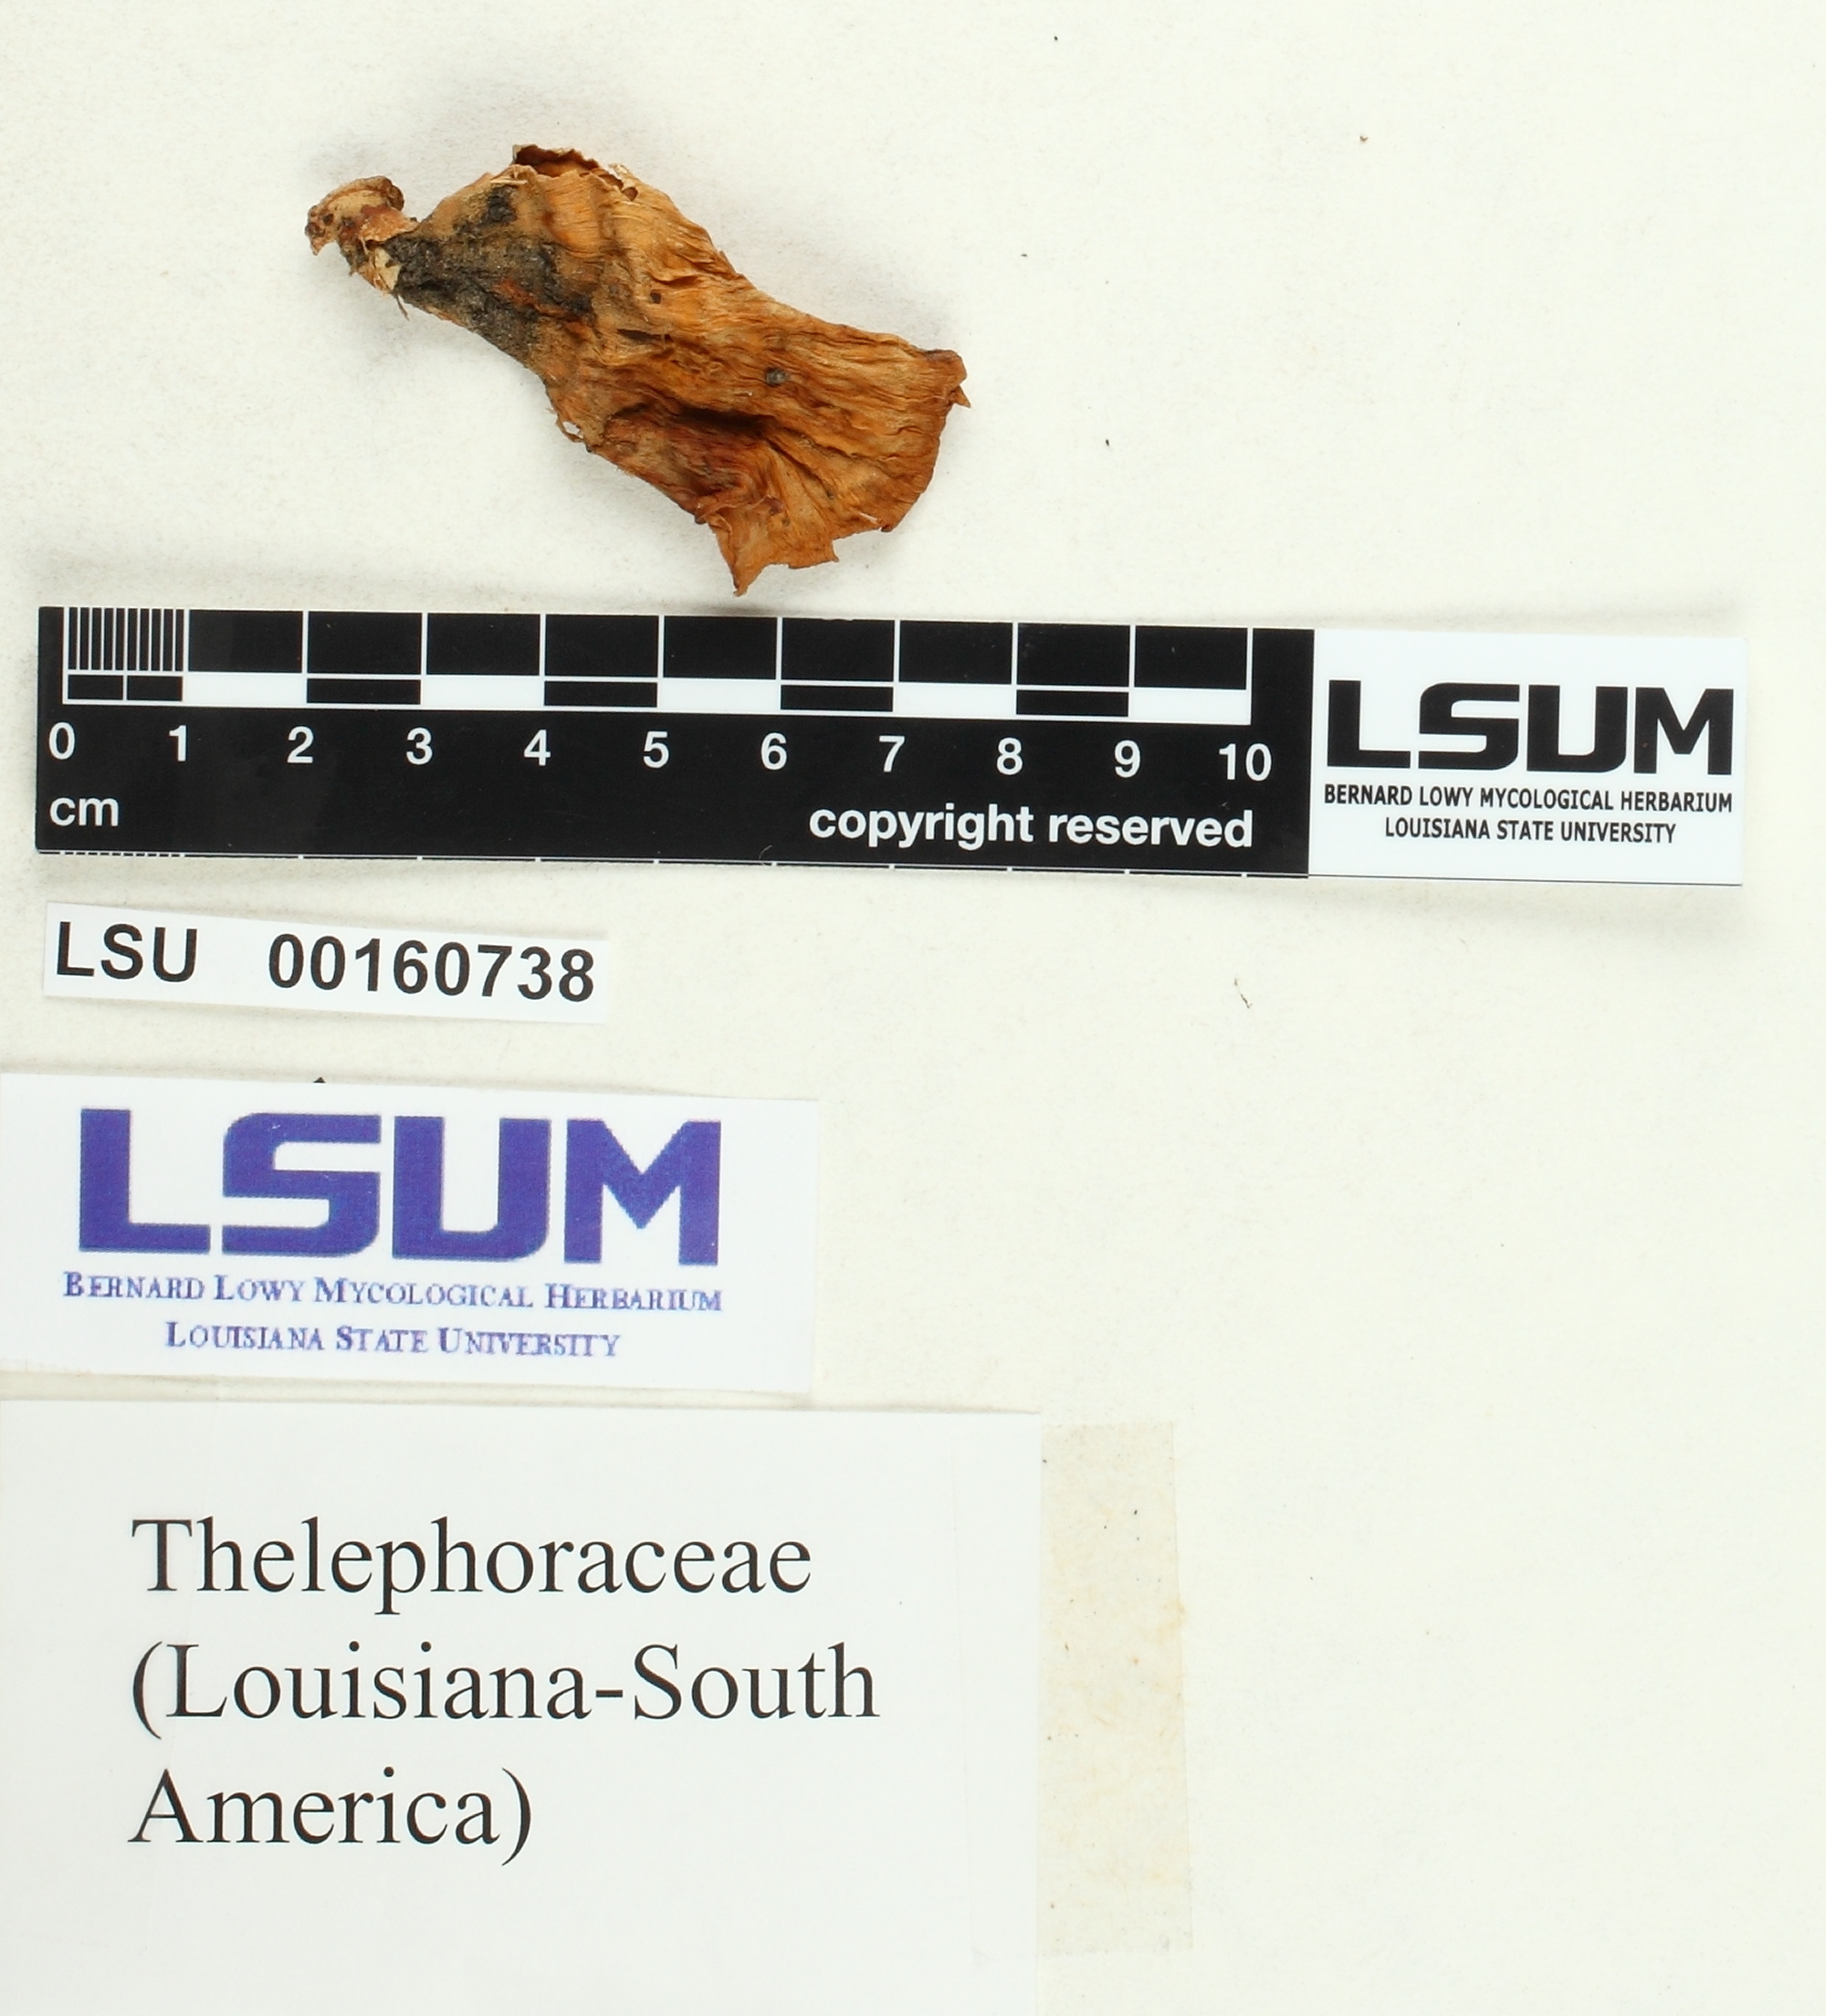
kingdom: Fungi
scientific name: Fungi
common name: Fungi
